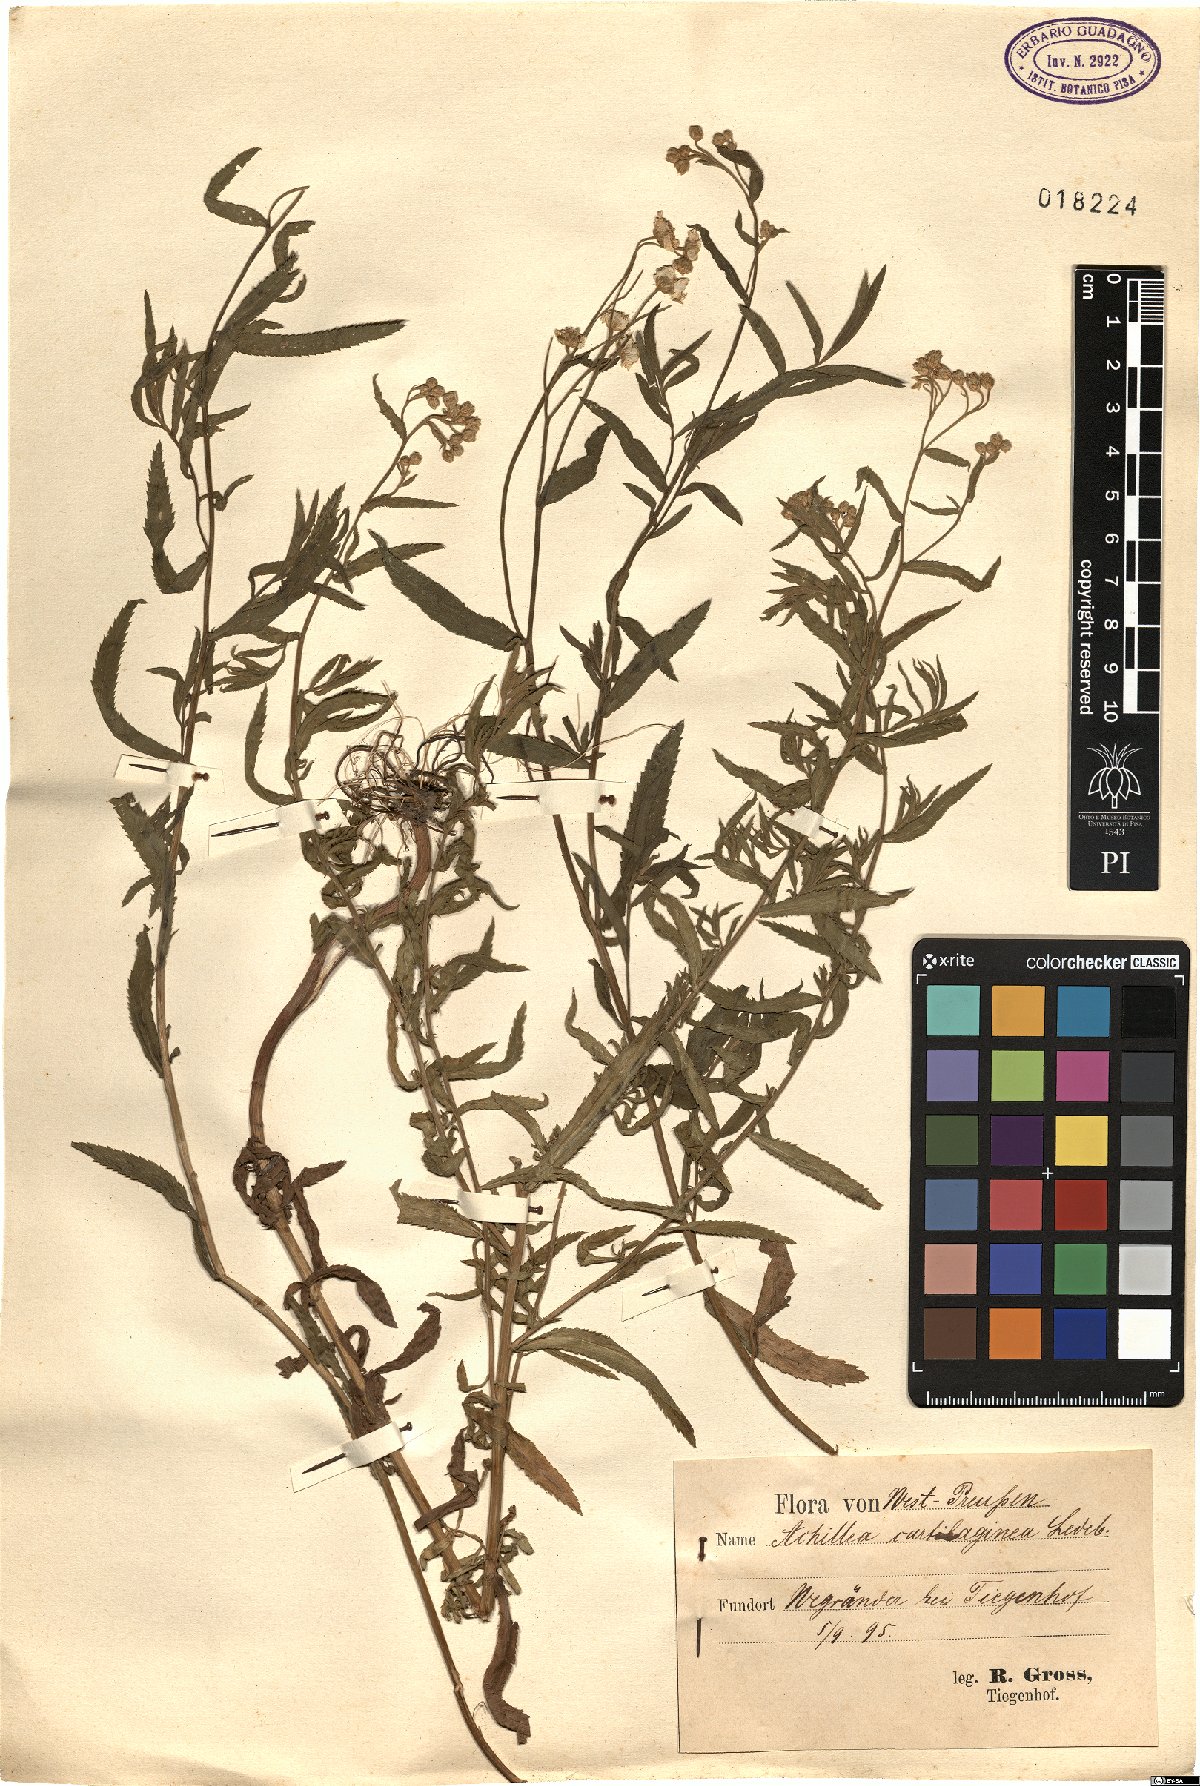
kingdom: Plantae
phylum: Tracheophyta
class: Magnoliopsida
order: Asterales
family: Asteraceae
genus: Achillea
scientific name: Achillea cartilaginea
